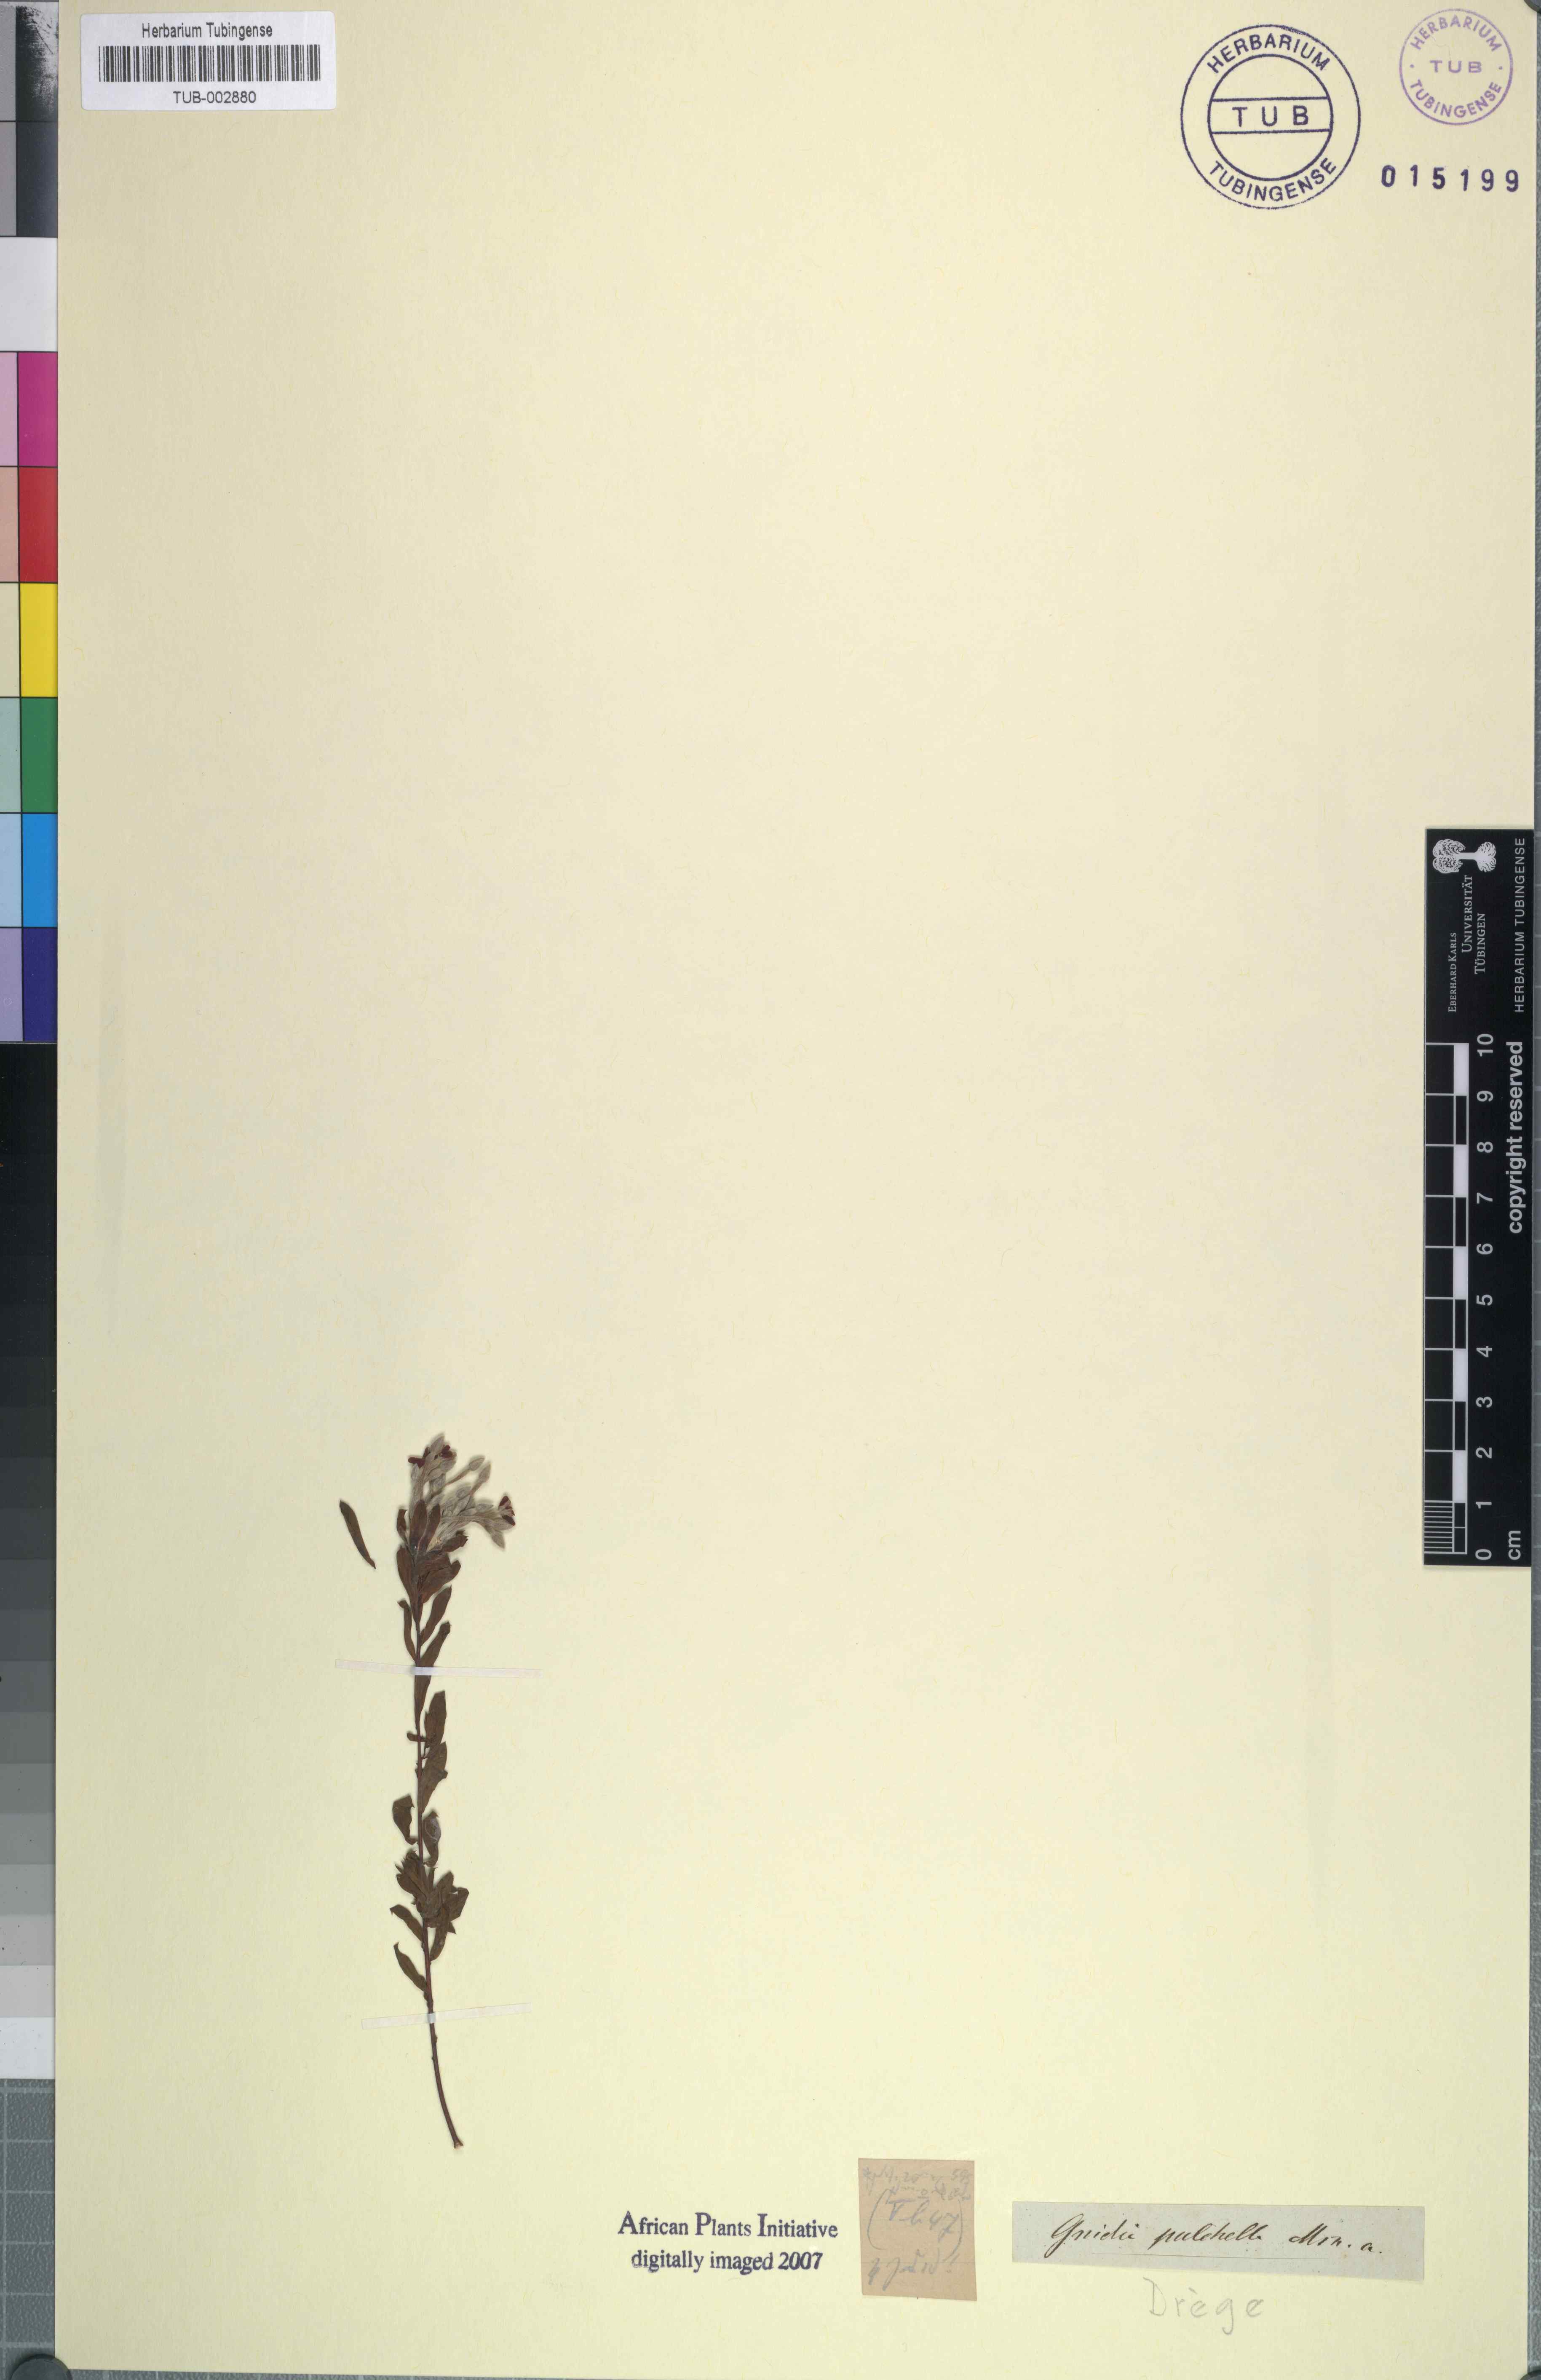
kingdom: Plantae
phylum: Tracheophyta
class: Magnoliopsida
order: Malvales
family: Thymelaeaceae
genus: Gnidia
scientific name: Gnidia pulchella
